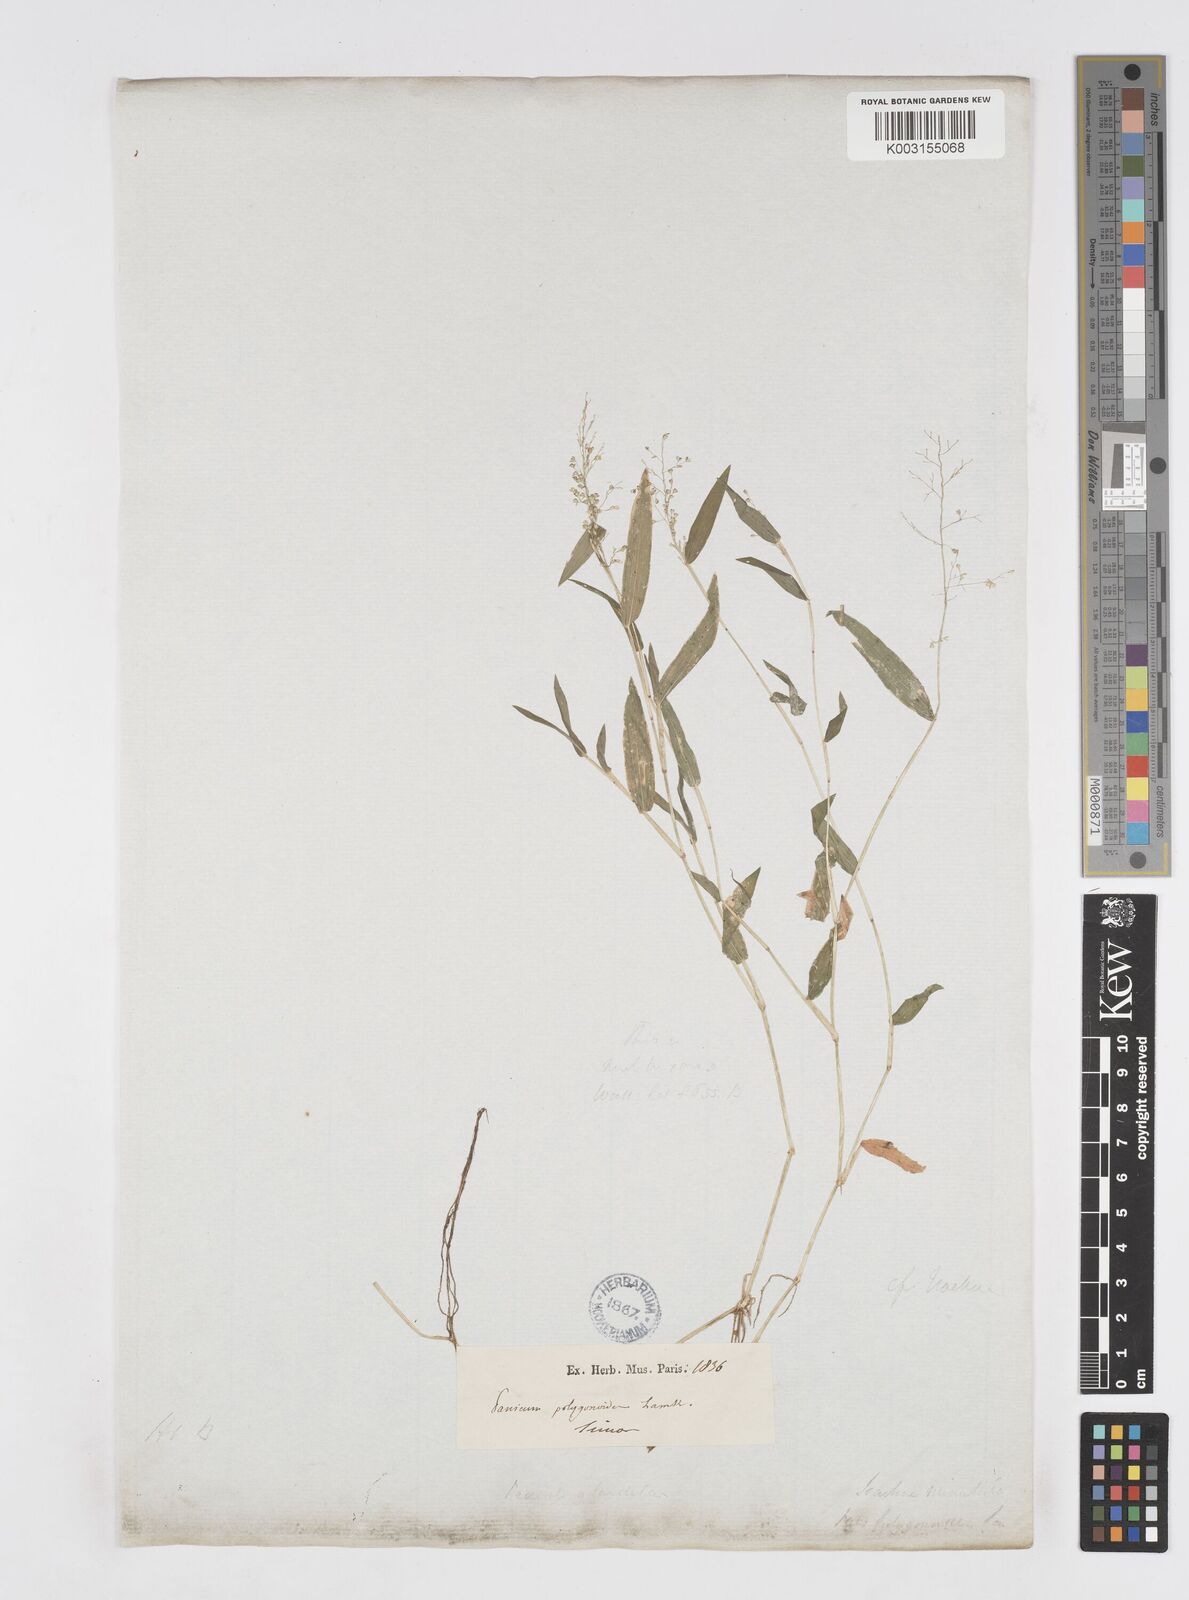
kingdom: Plantae
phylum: Tracheophyta
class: Liliopsida
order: Poales
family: Poaceae
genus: Isachne
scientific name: Isachne
